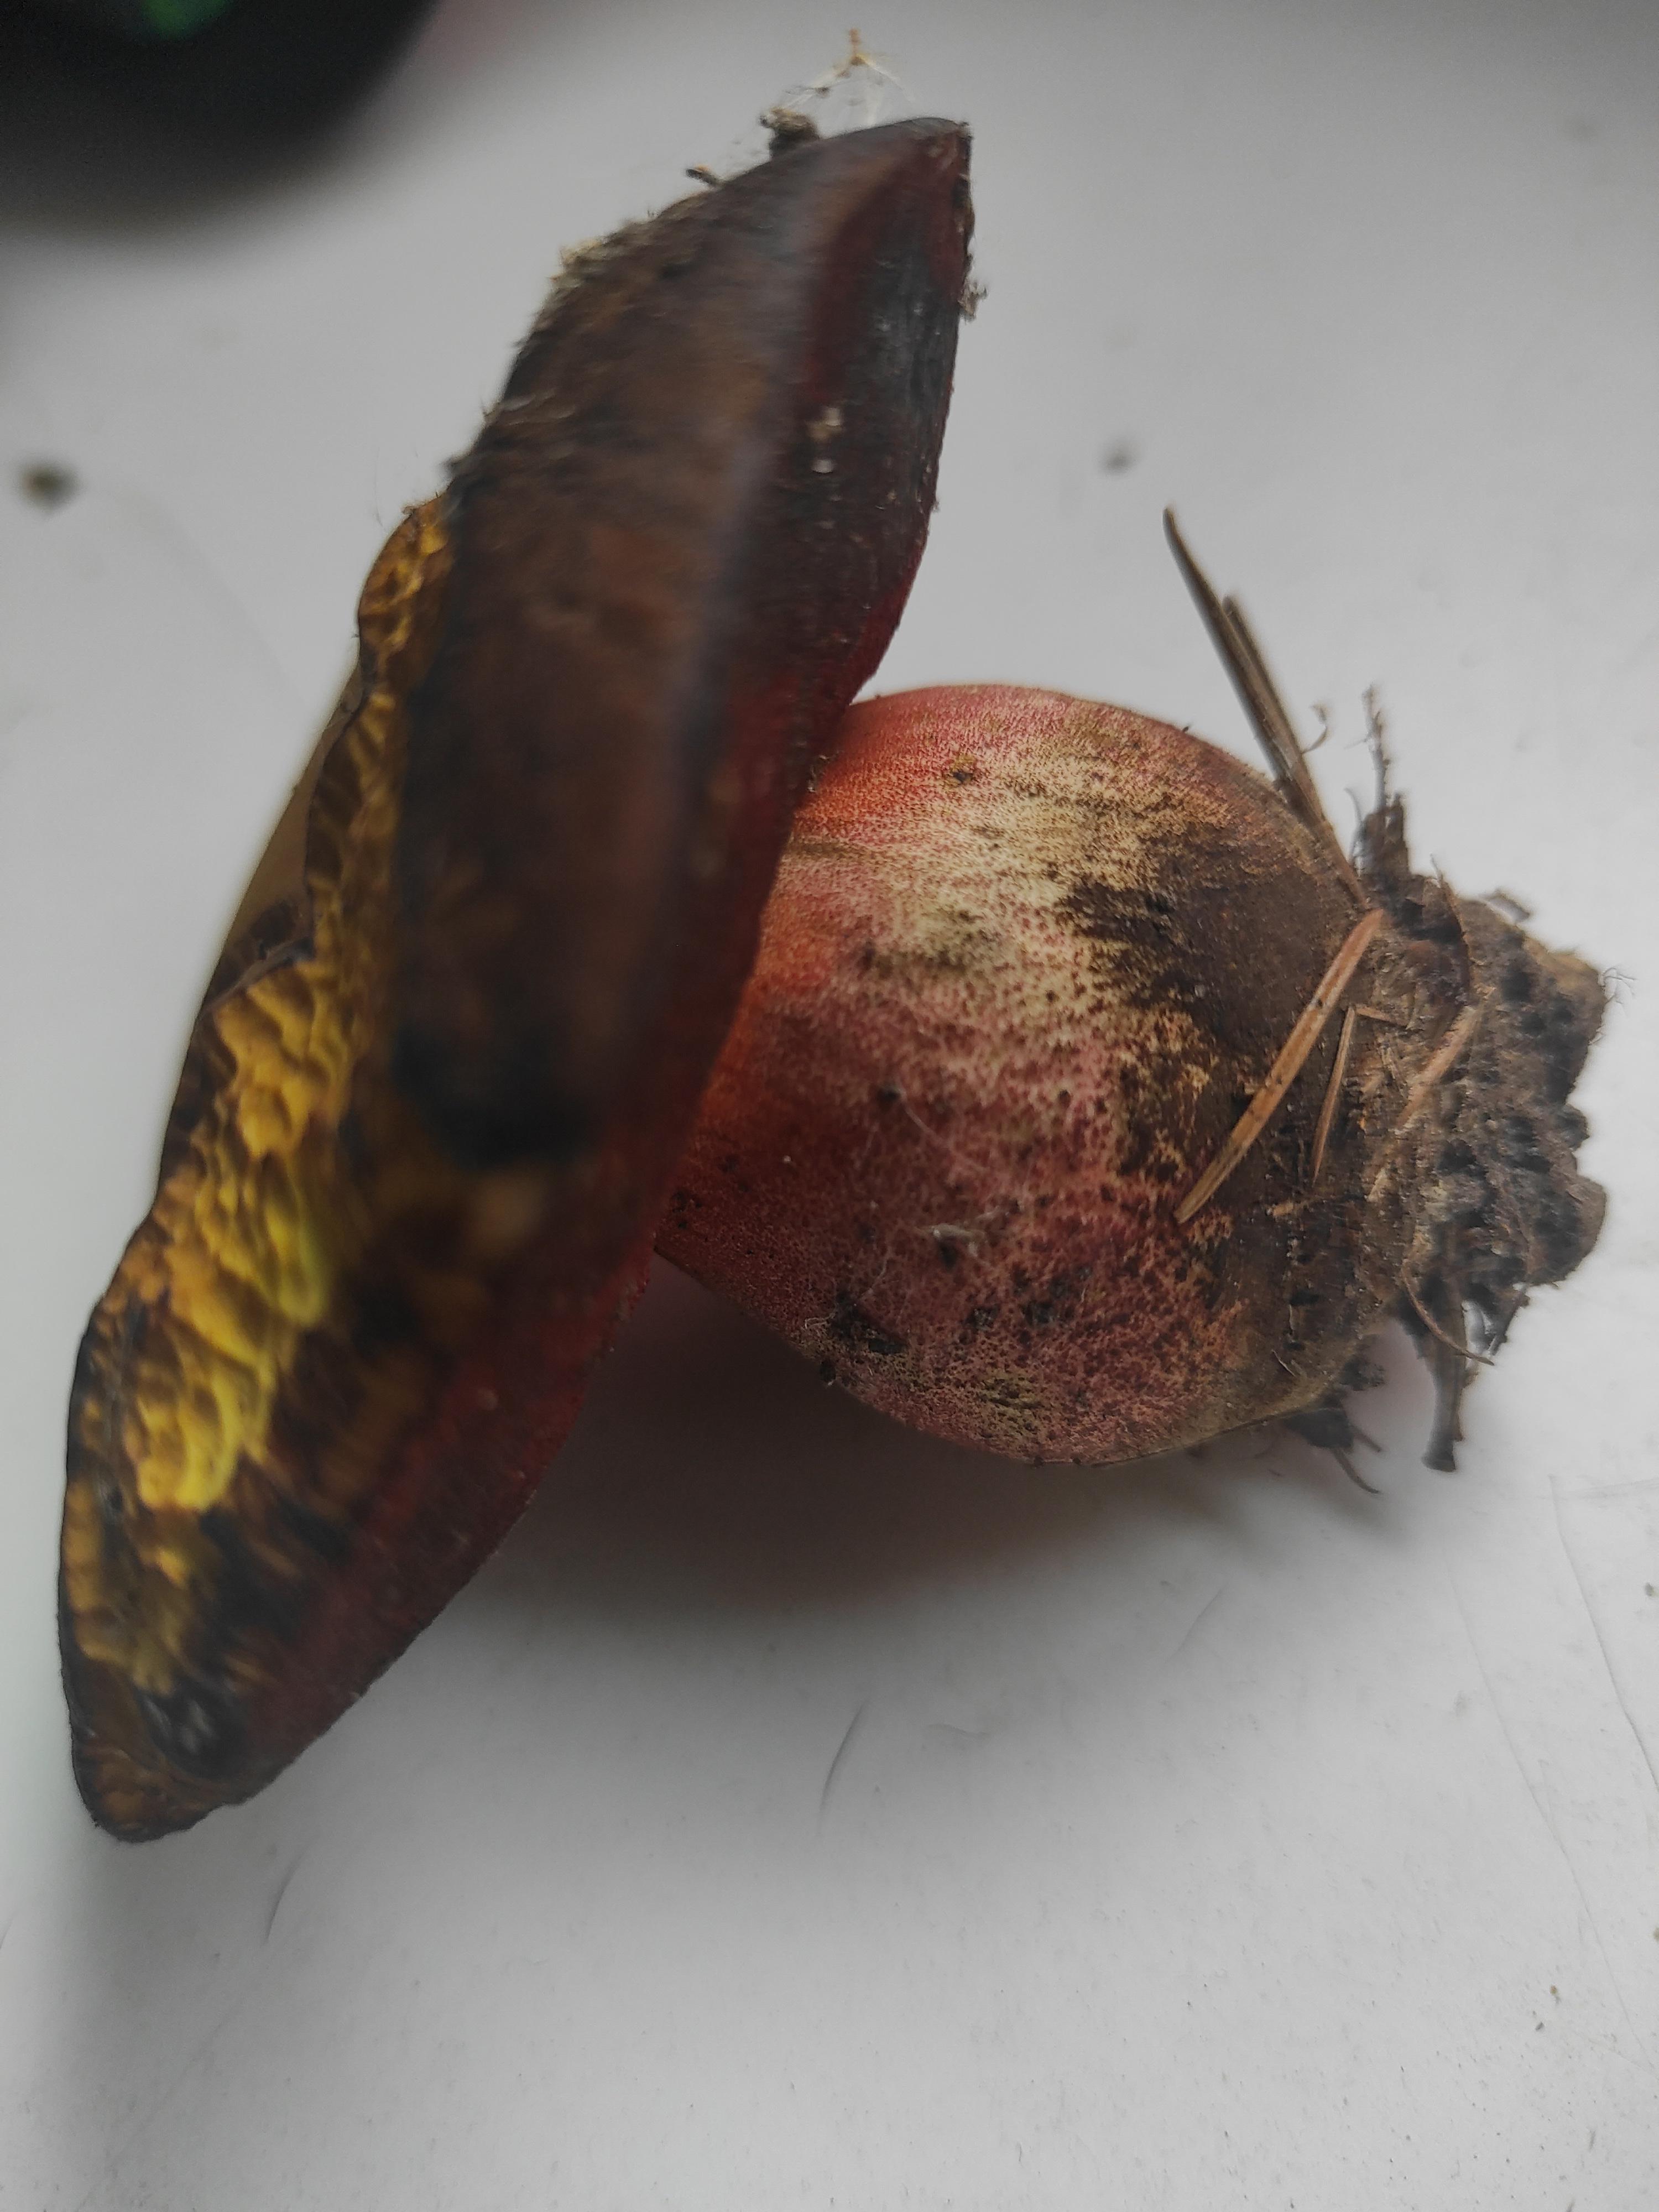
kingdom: Fungi
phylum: Basidiomycota
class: Agaricomycetes
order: Boletales
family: Boletaceae
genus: Neoboletus
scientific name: Neoboletus erythropus
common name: punktstokket indigorørhat
